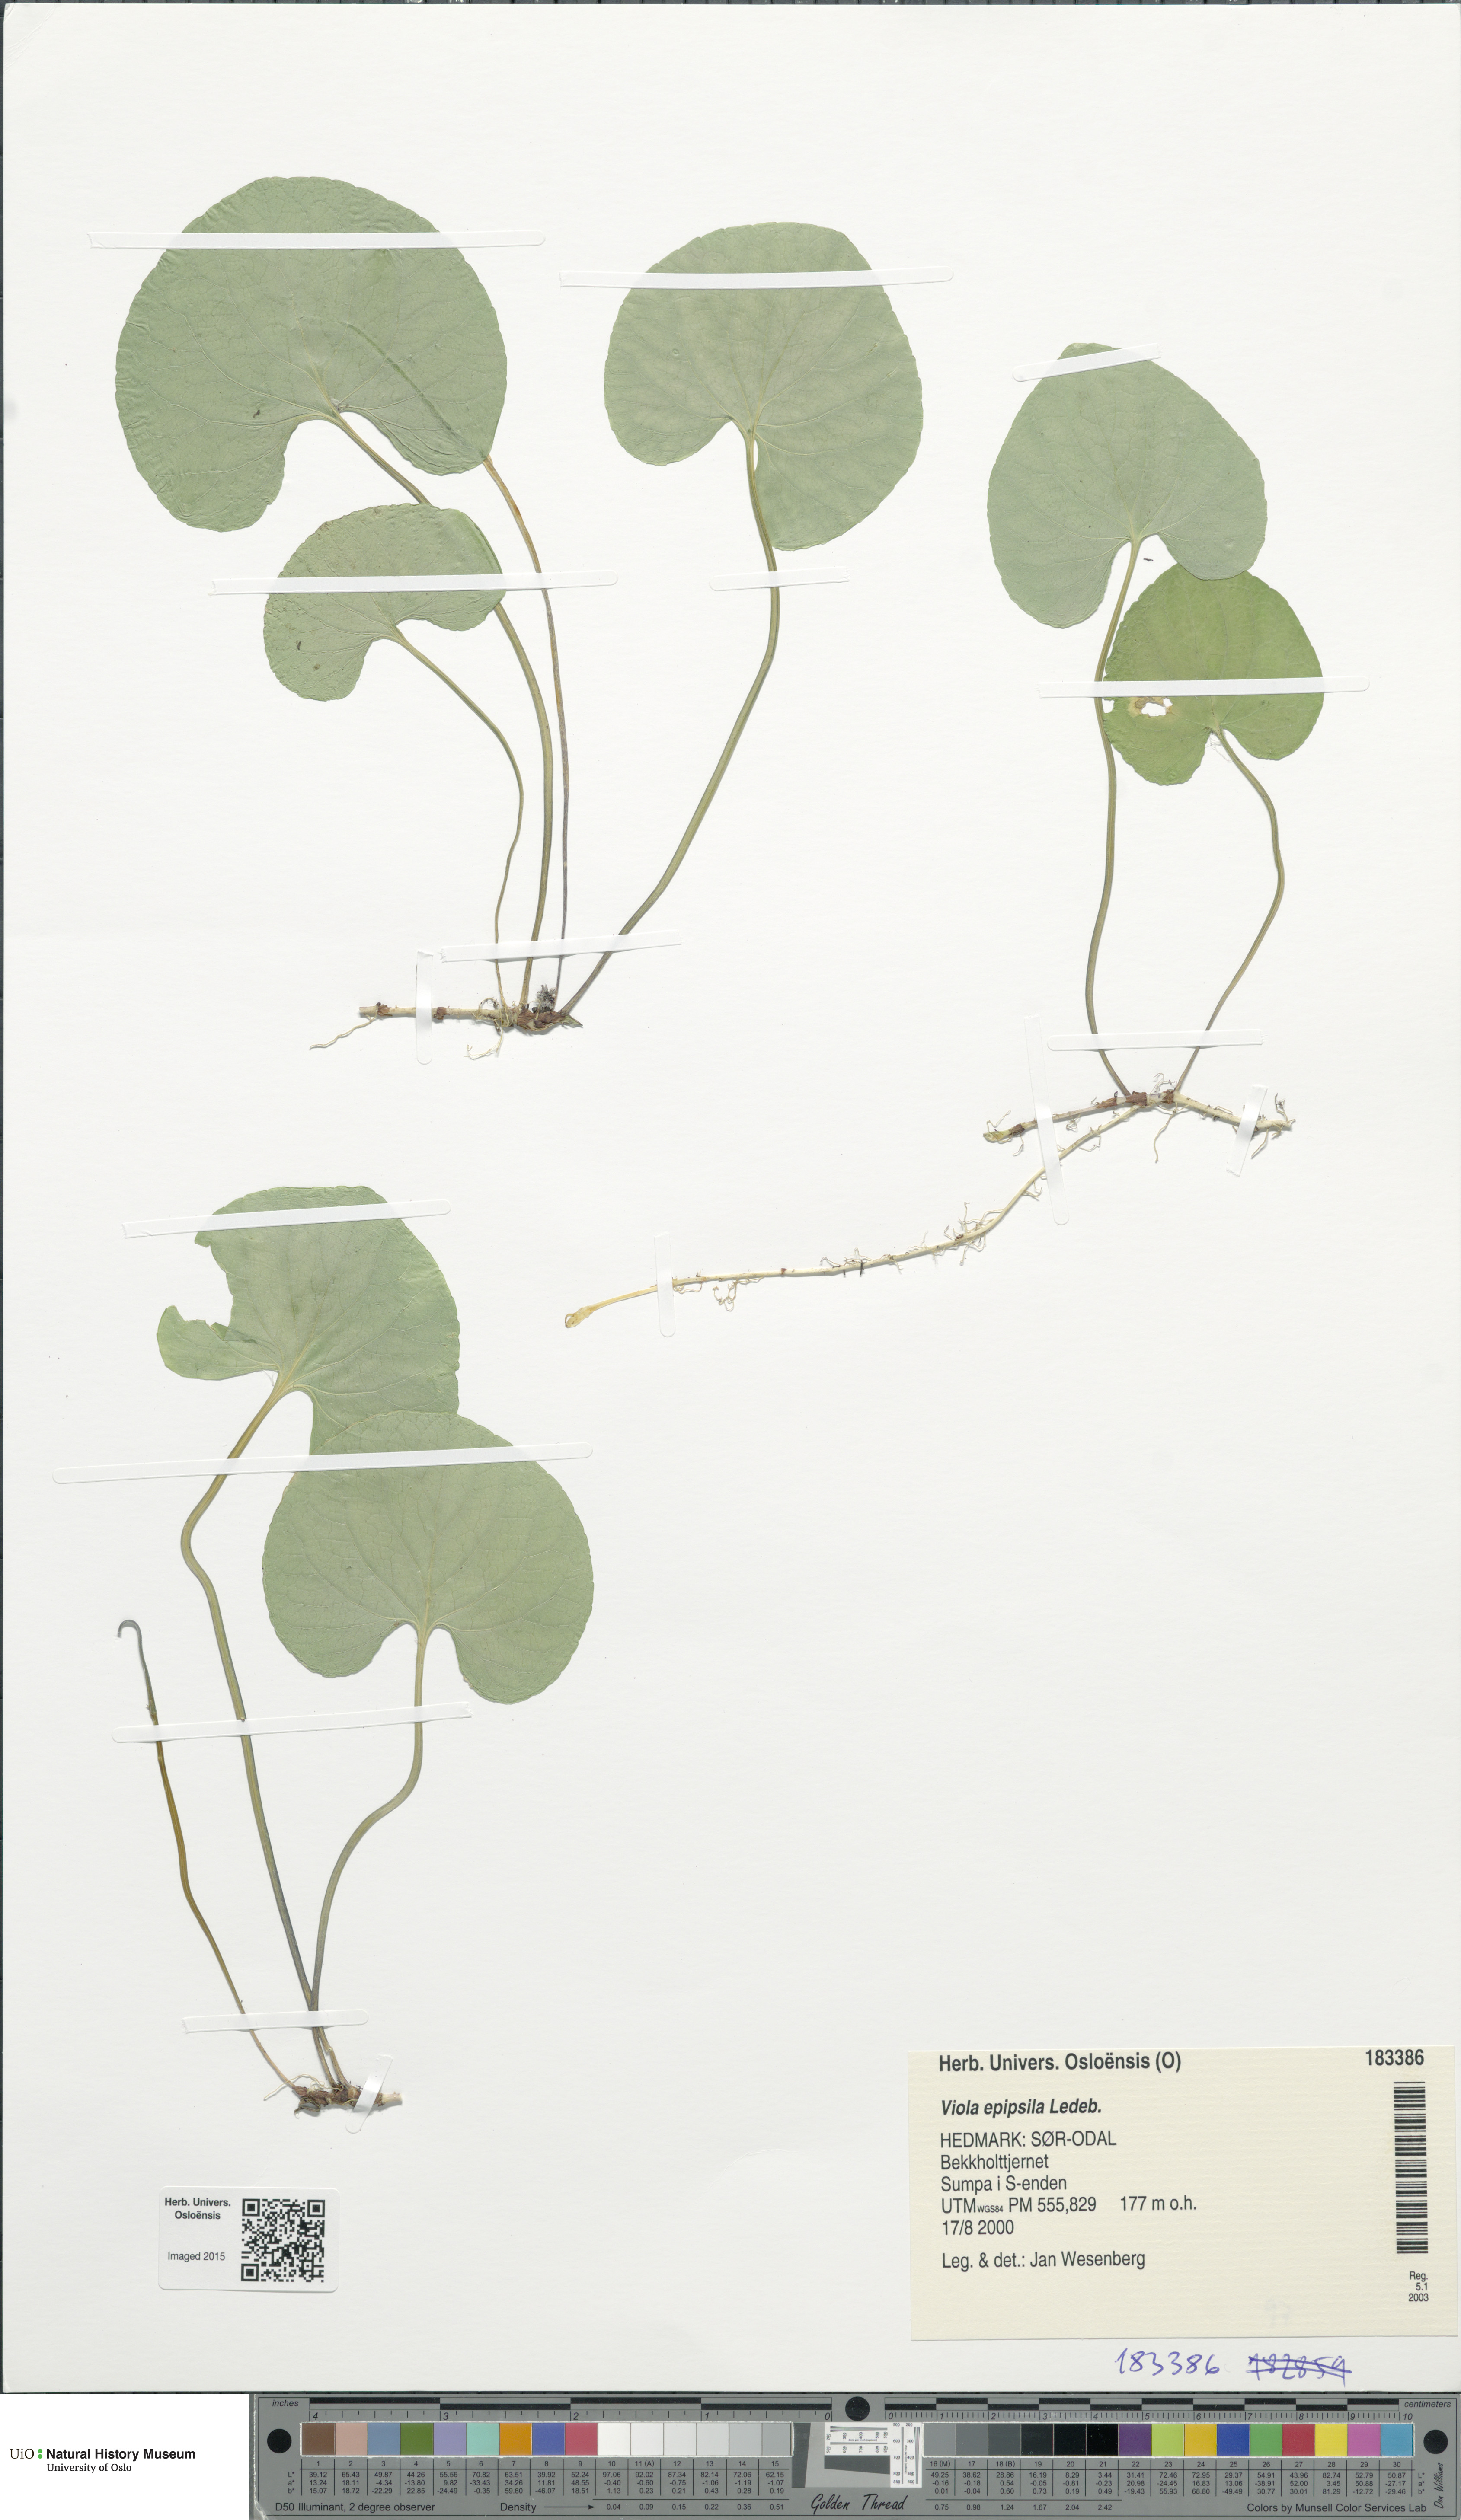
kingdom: Plantae
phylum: Tracheophyta
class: Magnoliopsida
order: Malpighiales
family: Violaceae
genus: Viola
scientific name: Viola epipsila
